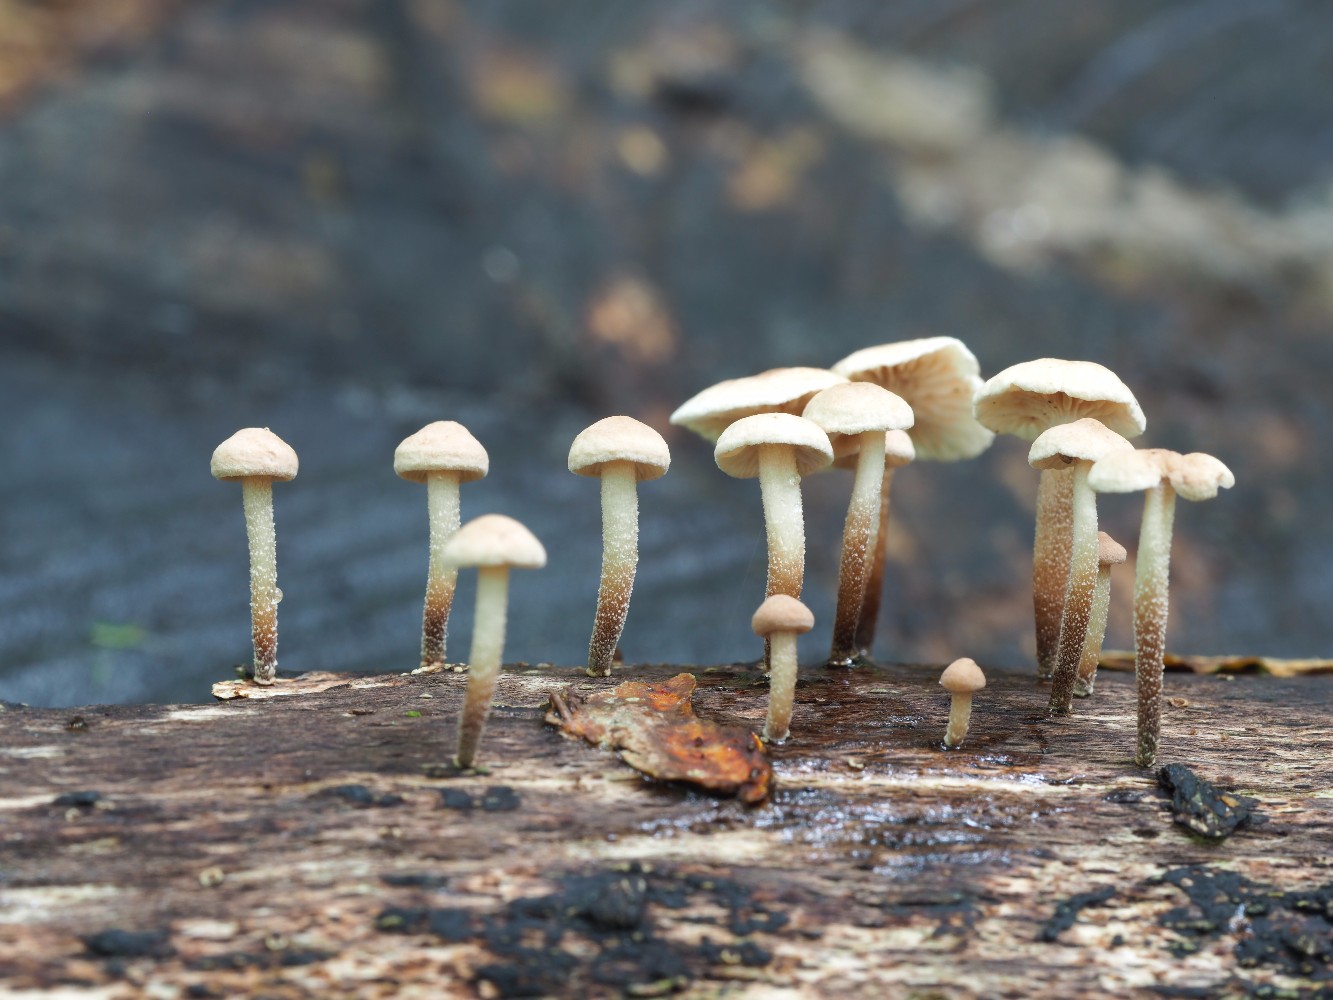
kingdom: Fungi
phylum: Basidiomycota
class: Agaricomycetes
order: Agaricales
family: Omphalotaceae
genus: Collybiopsis
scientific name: Collybiopsis ramealis
